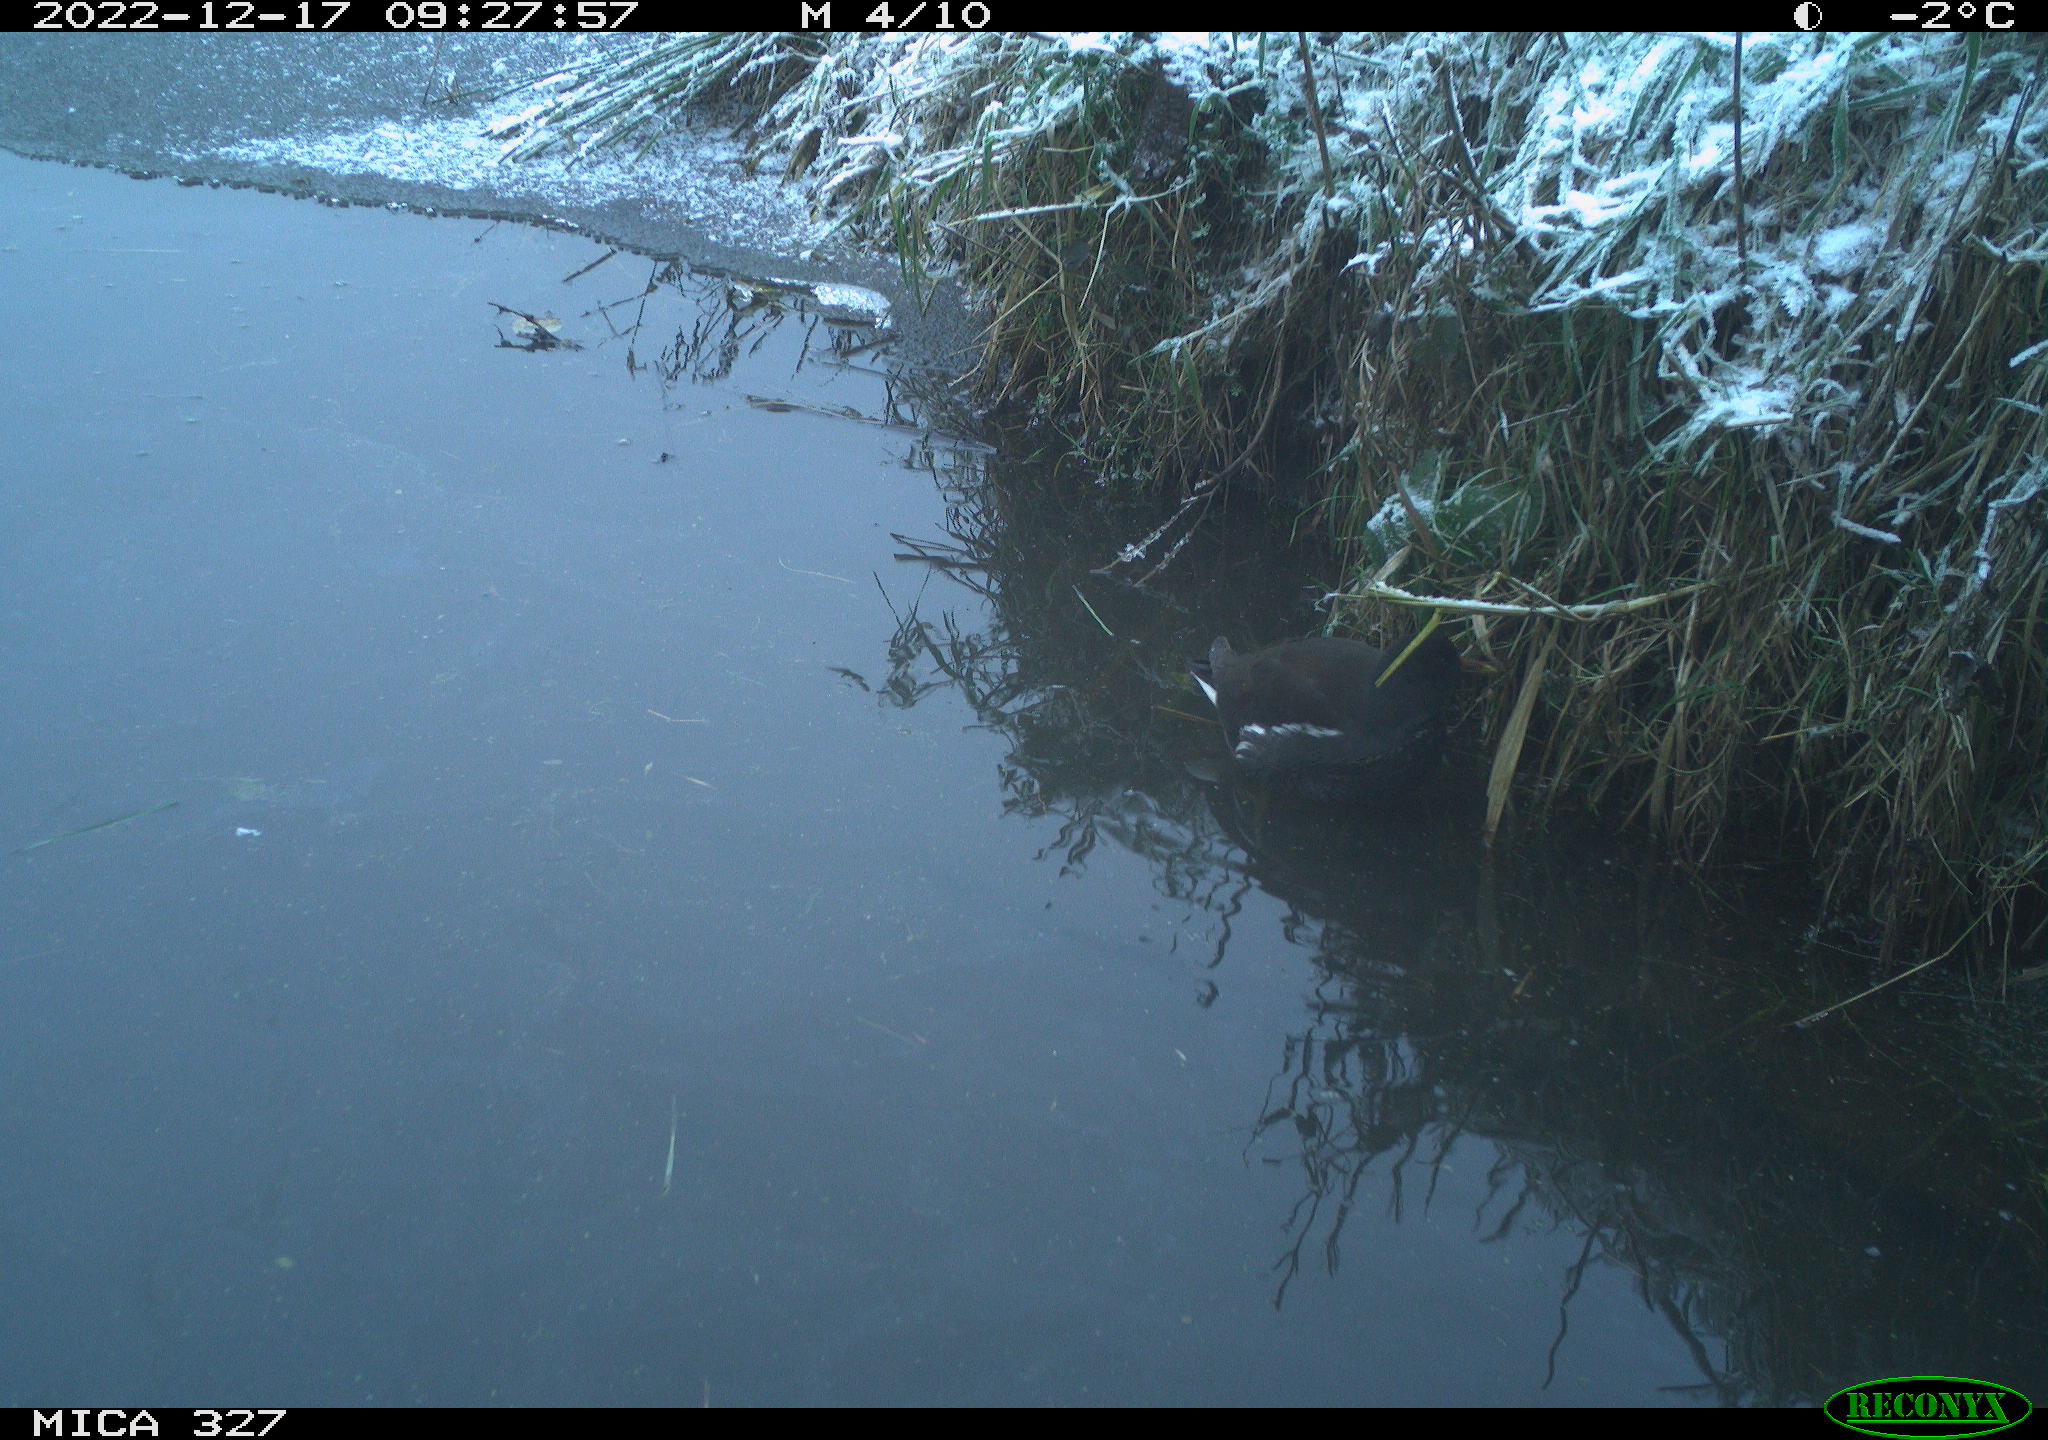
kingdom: Animalia
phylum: Chordata
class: Aves
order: Gruiformes
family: Rallidae
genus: Gallinula
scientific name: Gallinula chloropus
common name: Common moorhen
